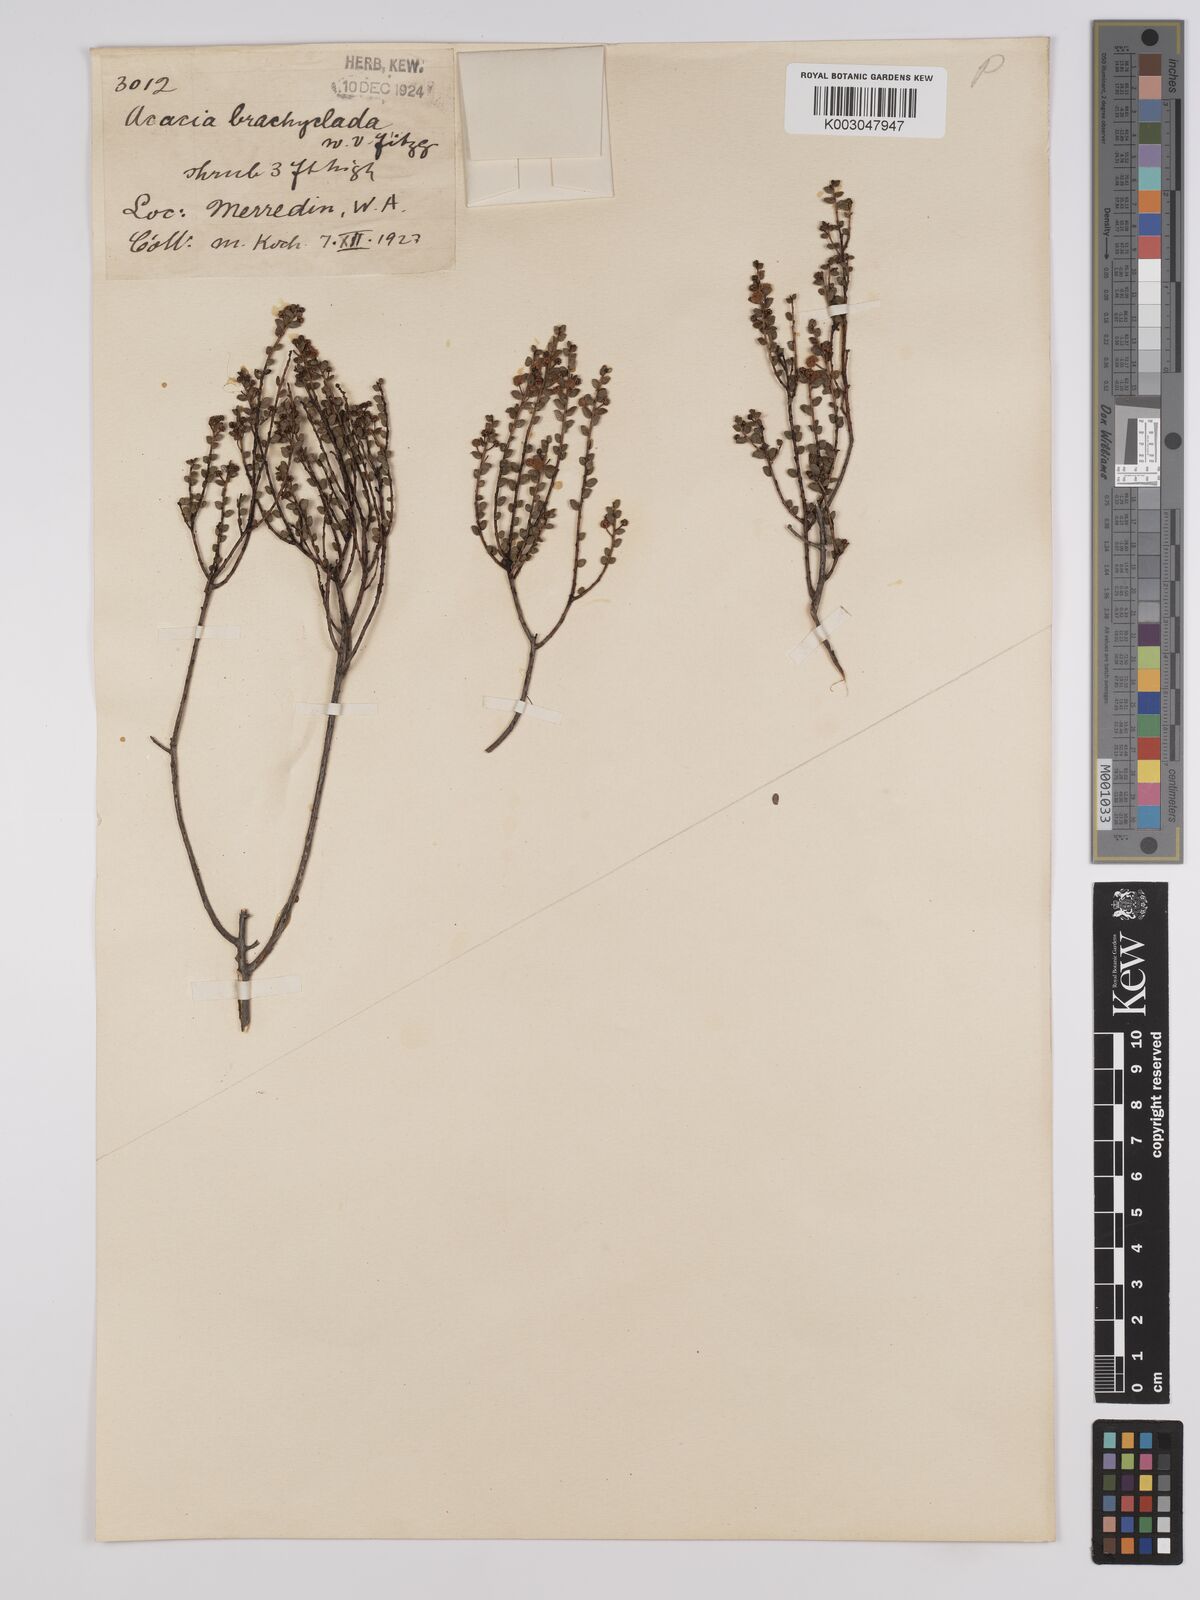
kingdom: Plantae
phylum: Tracheophyta
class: Magnoliopsida
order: Fabales
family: Fabaceae
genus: Acacia
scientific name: Acacia brachyclada
